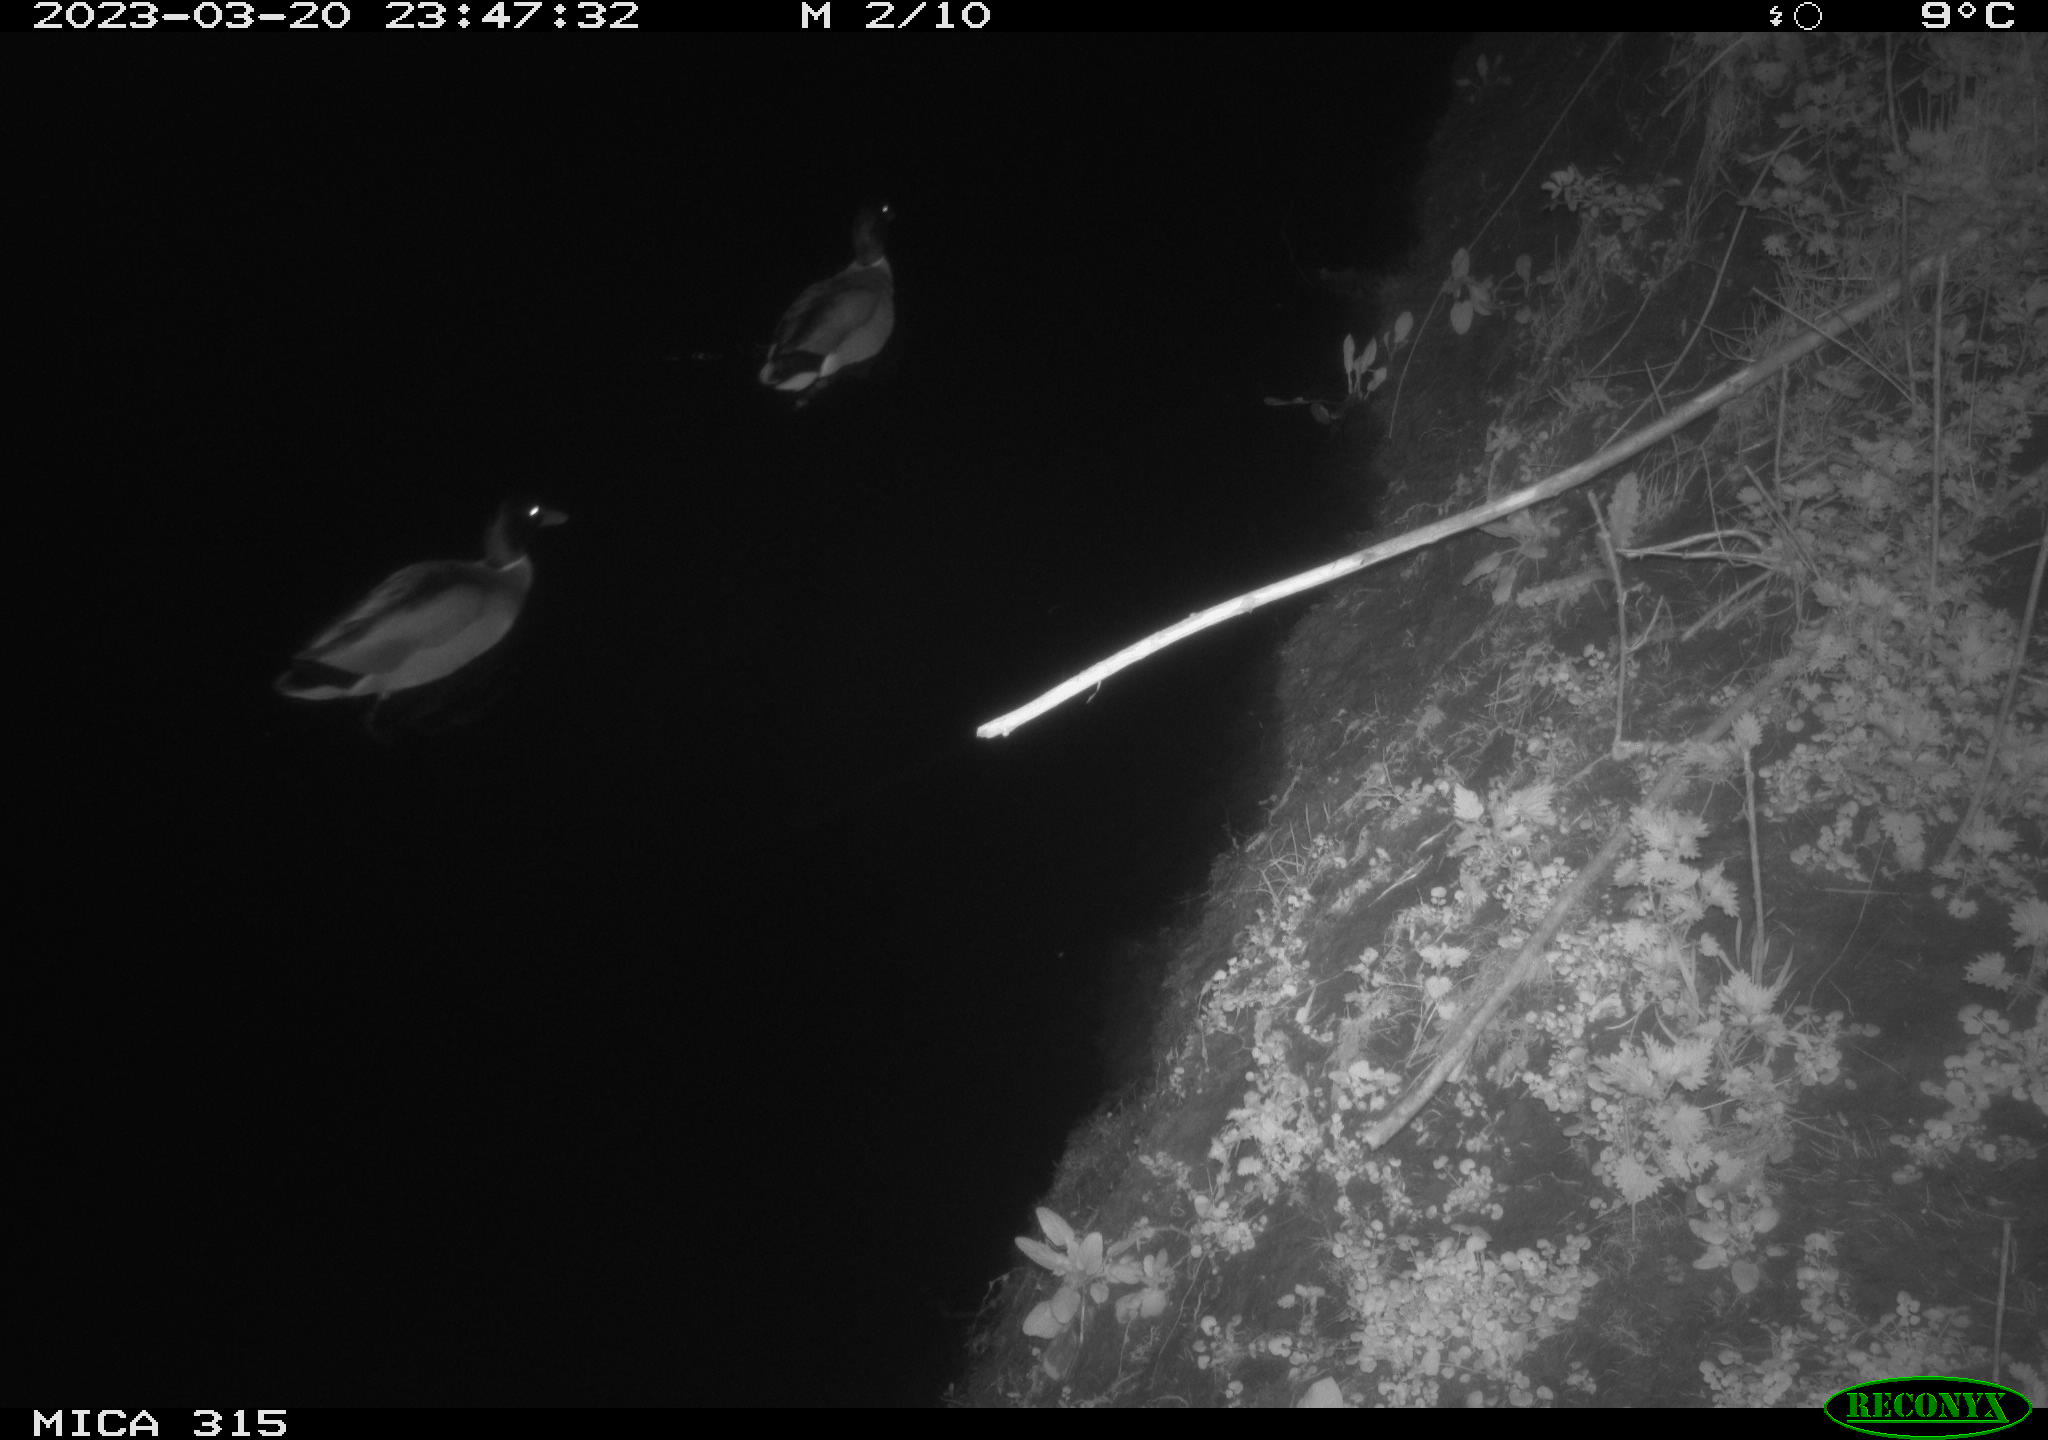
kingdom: Animalia
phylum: Chordata
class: Aves
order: Anseriformes
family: Anatidae
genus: Anas
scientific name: Anas
